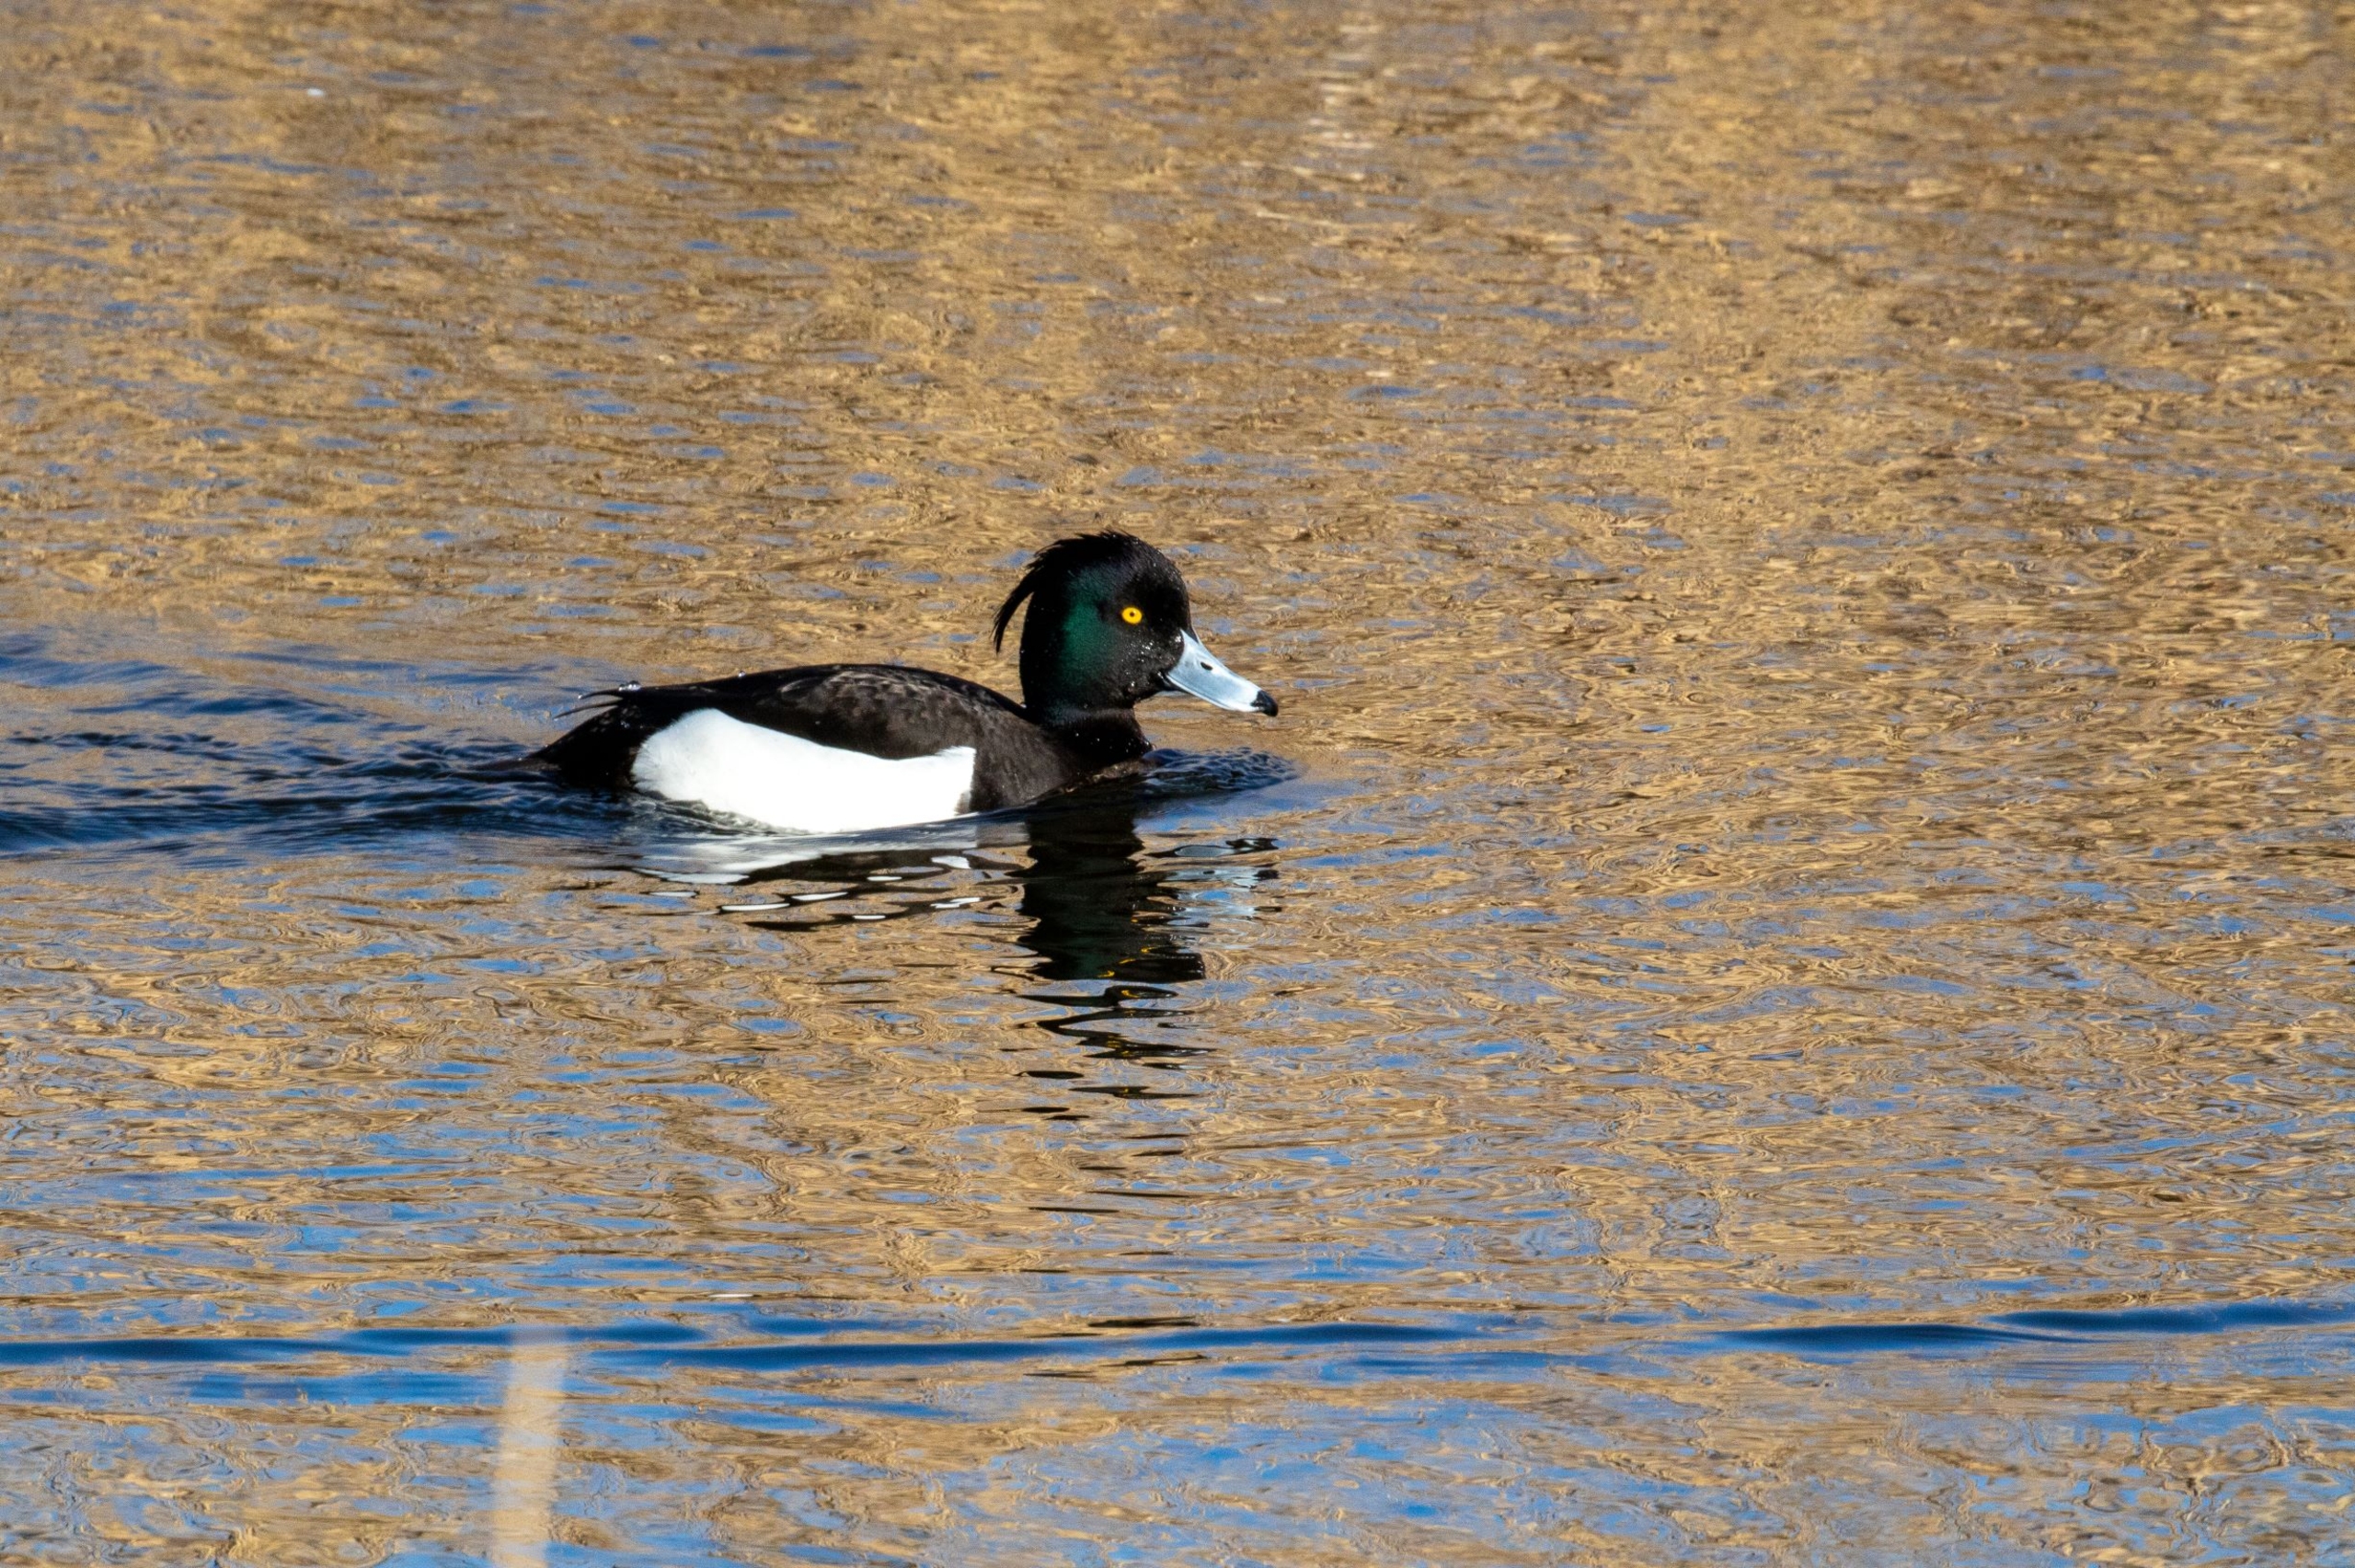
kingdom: Animalia
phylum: Chordata
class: Aves
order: Anseriformes
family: Anatidae
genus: Aythya
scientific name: Aythya fuligula
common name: Troldand
